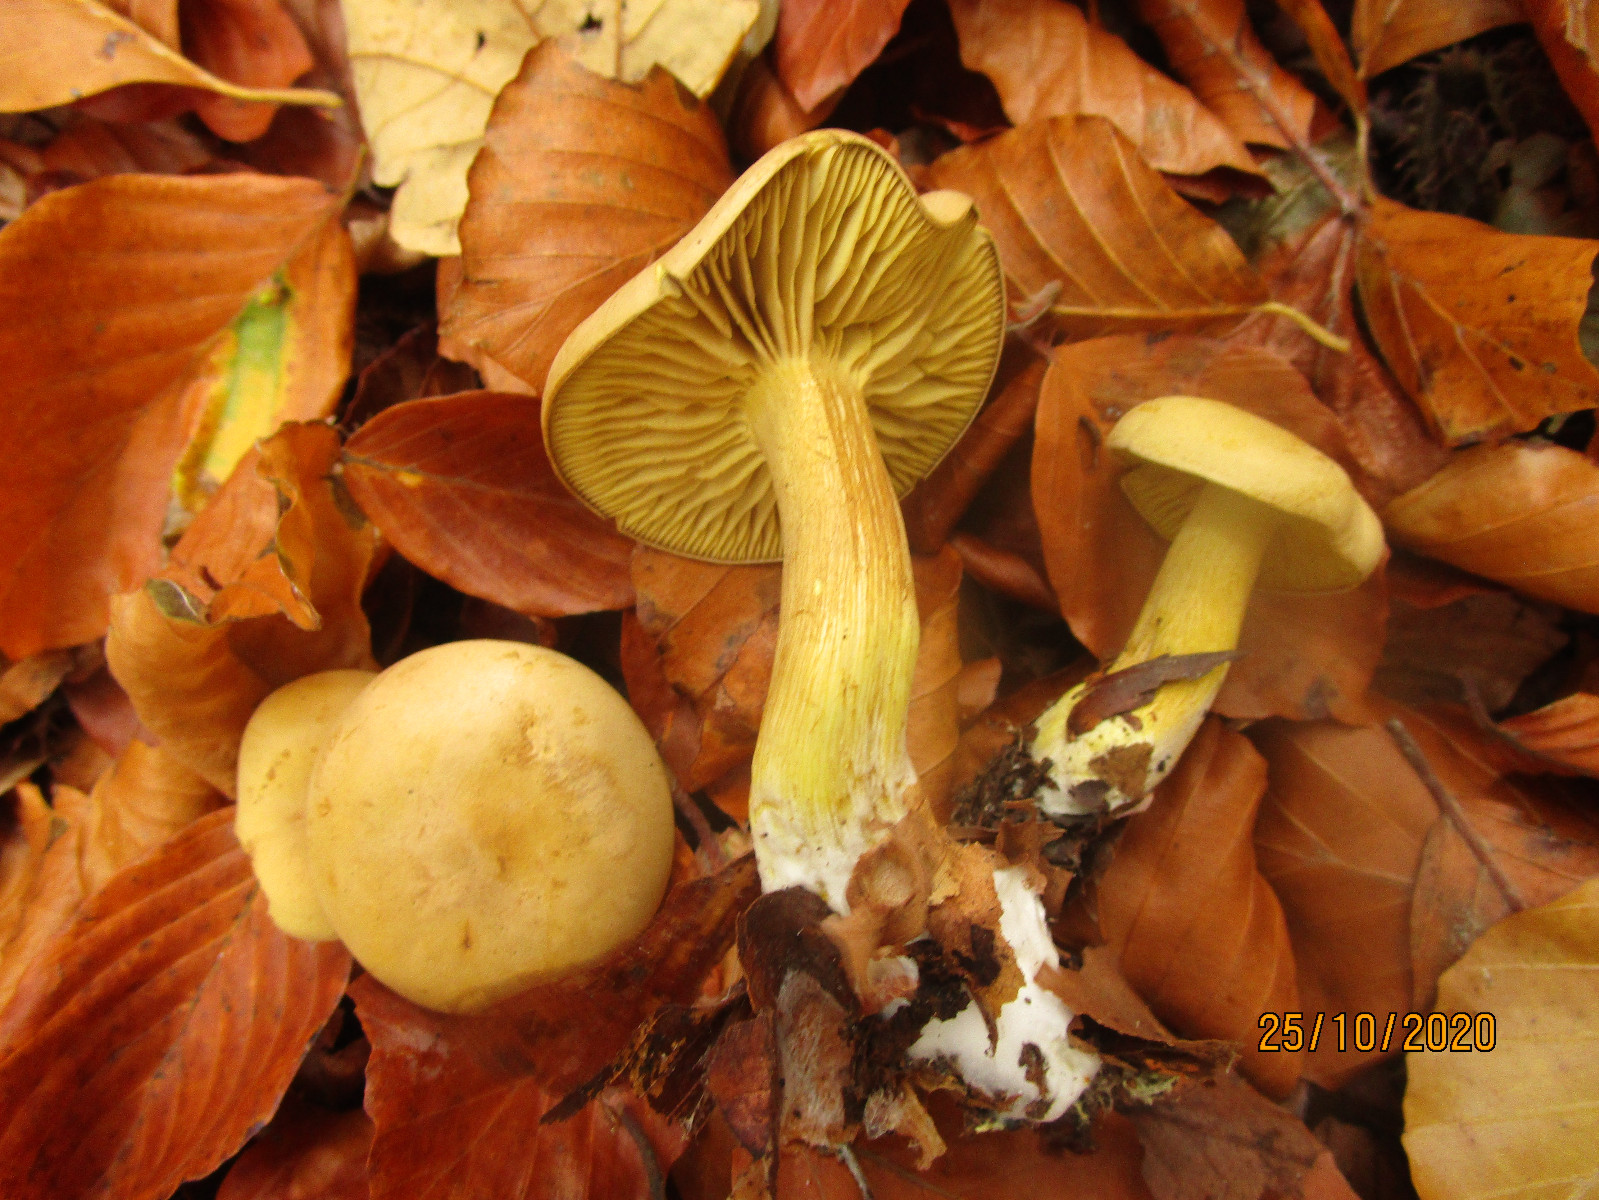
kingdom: Fungi
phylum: Basidiomycota
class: Agaricomycetes
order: Agaricales
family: Tricholomataceae
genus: Tricholoma
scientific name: Tricholoma sulphureum
